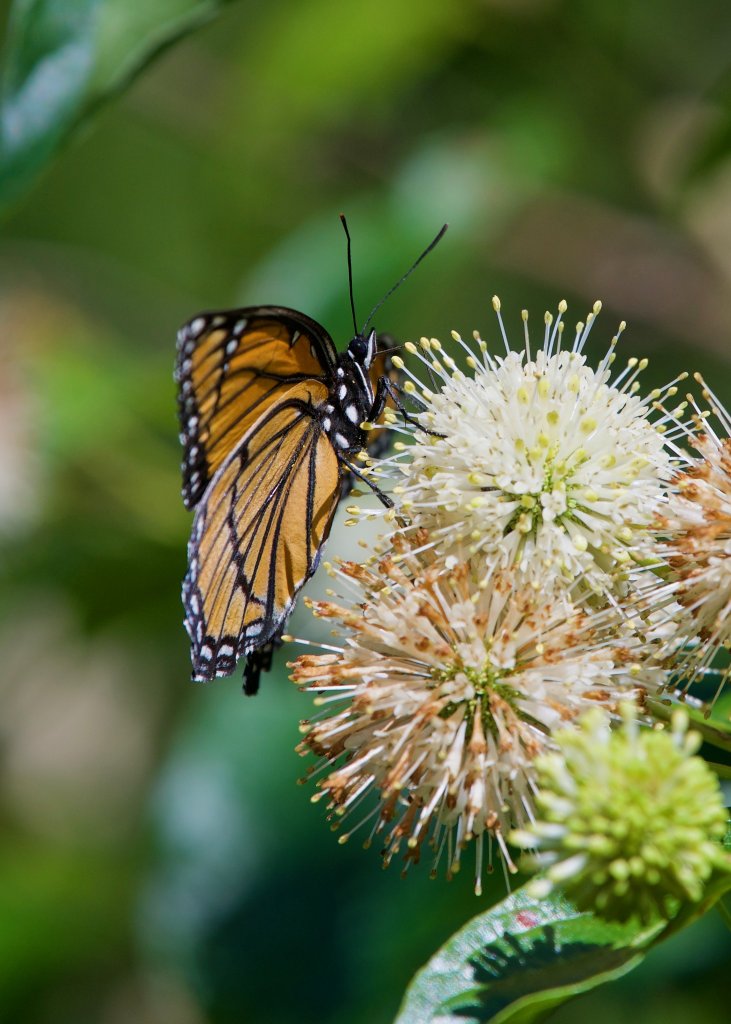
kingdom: Animalia
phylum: Arthropoda
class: Insecta
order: Lepidoptera
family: Nymphalidae
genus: Limenitis
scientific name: Limenitis archippus
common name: Viceroy
